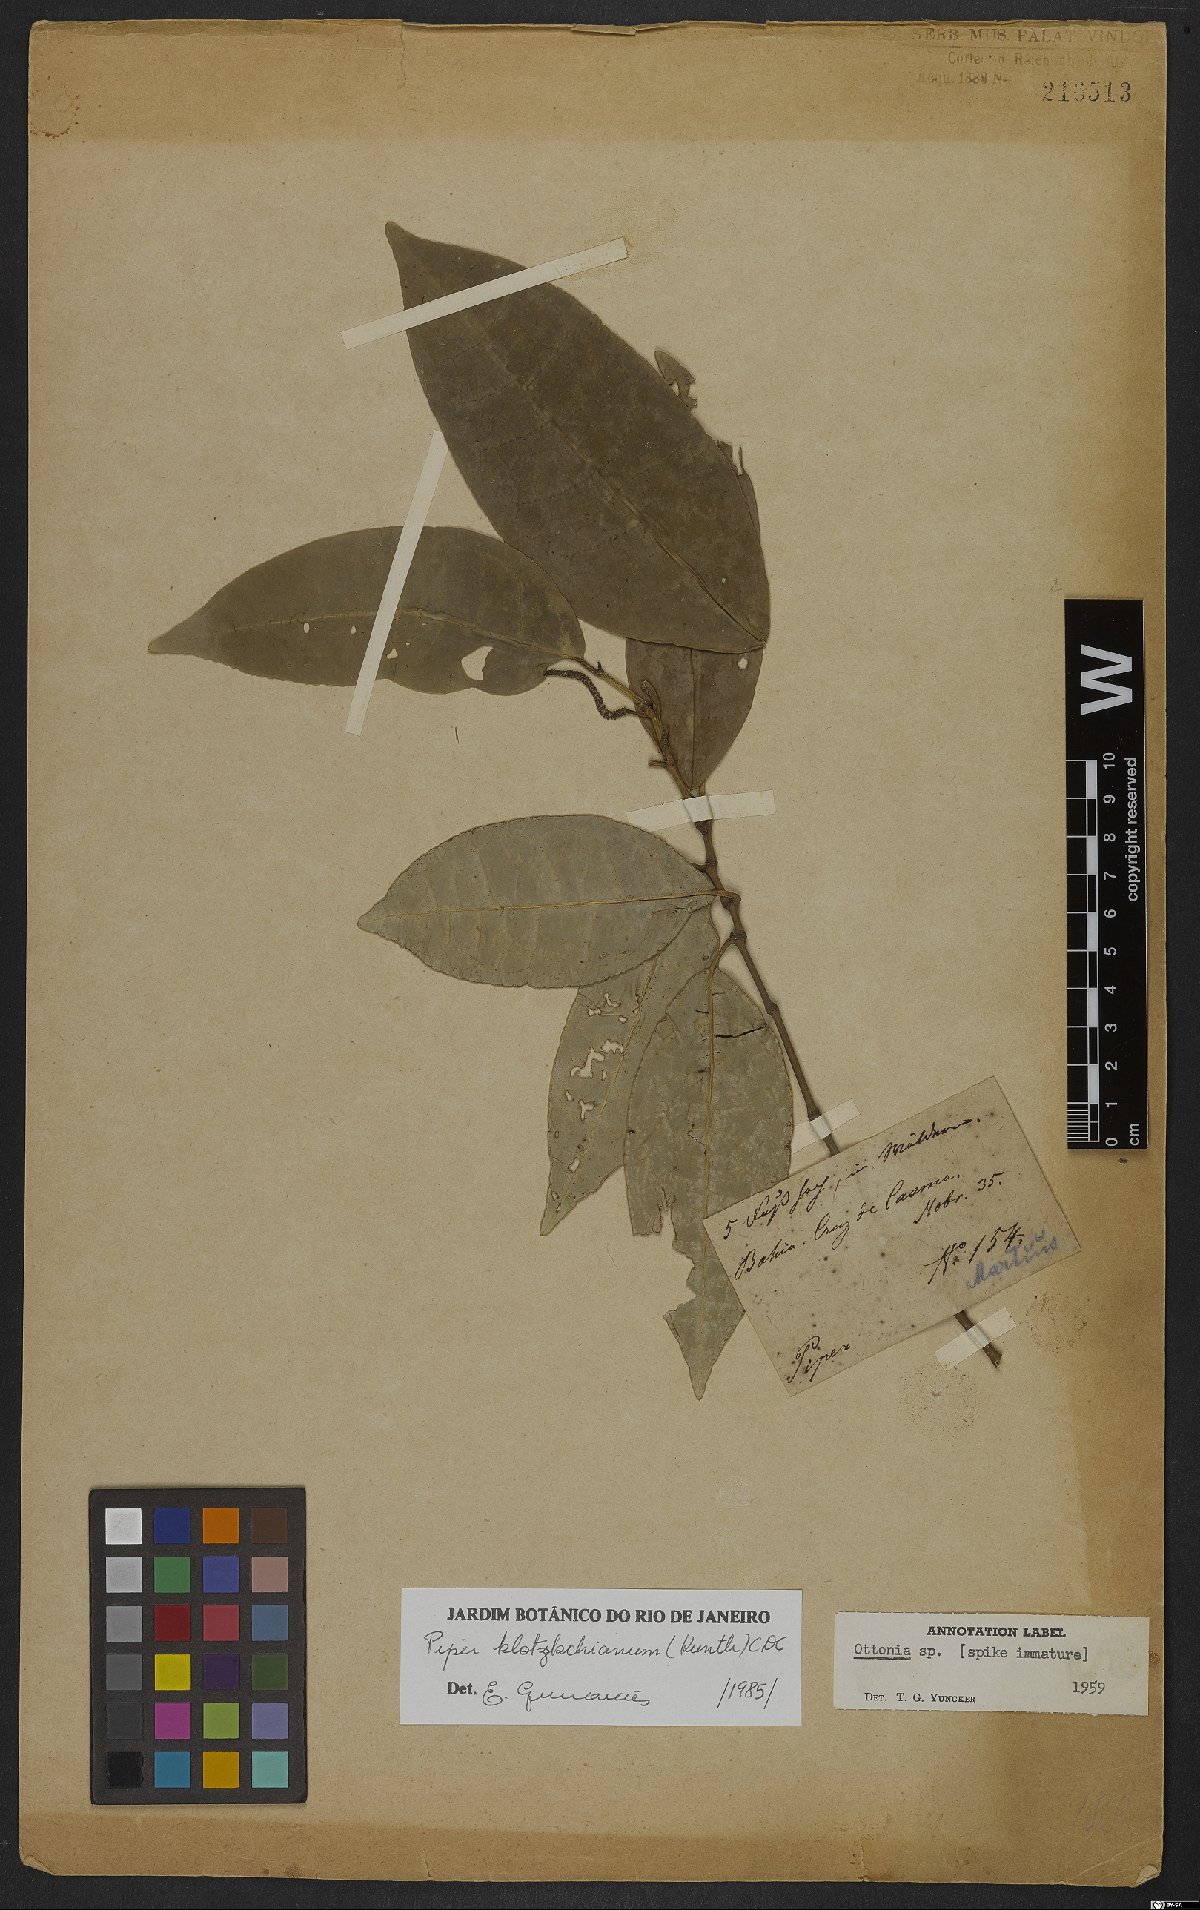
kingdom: Plantae
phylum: Tracheophyta
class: Magnoliopsida
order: Piperales
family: Piperaceae
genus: Piper
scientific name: Piper klotzschianum
